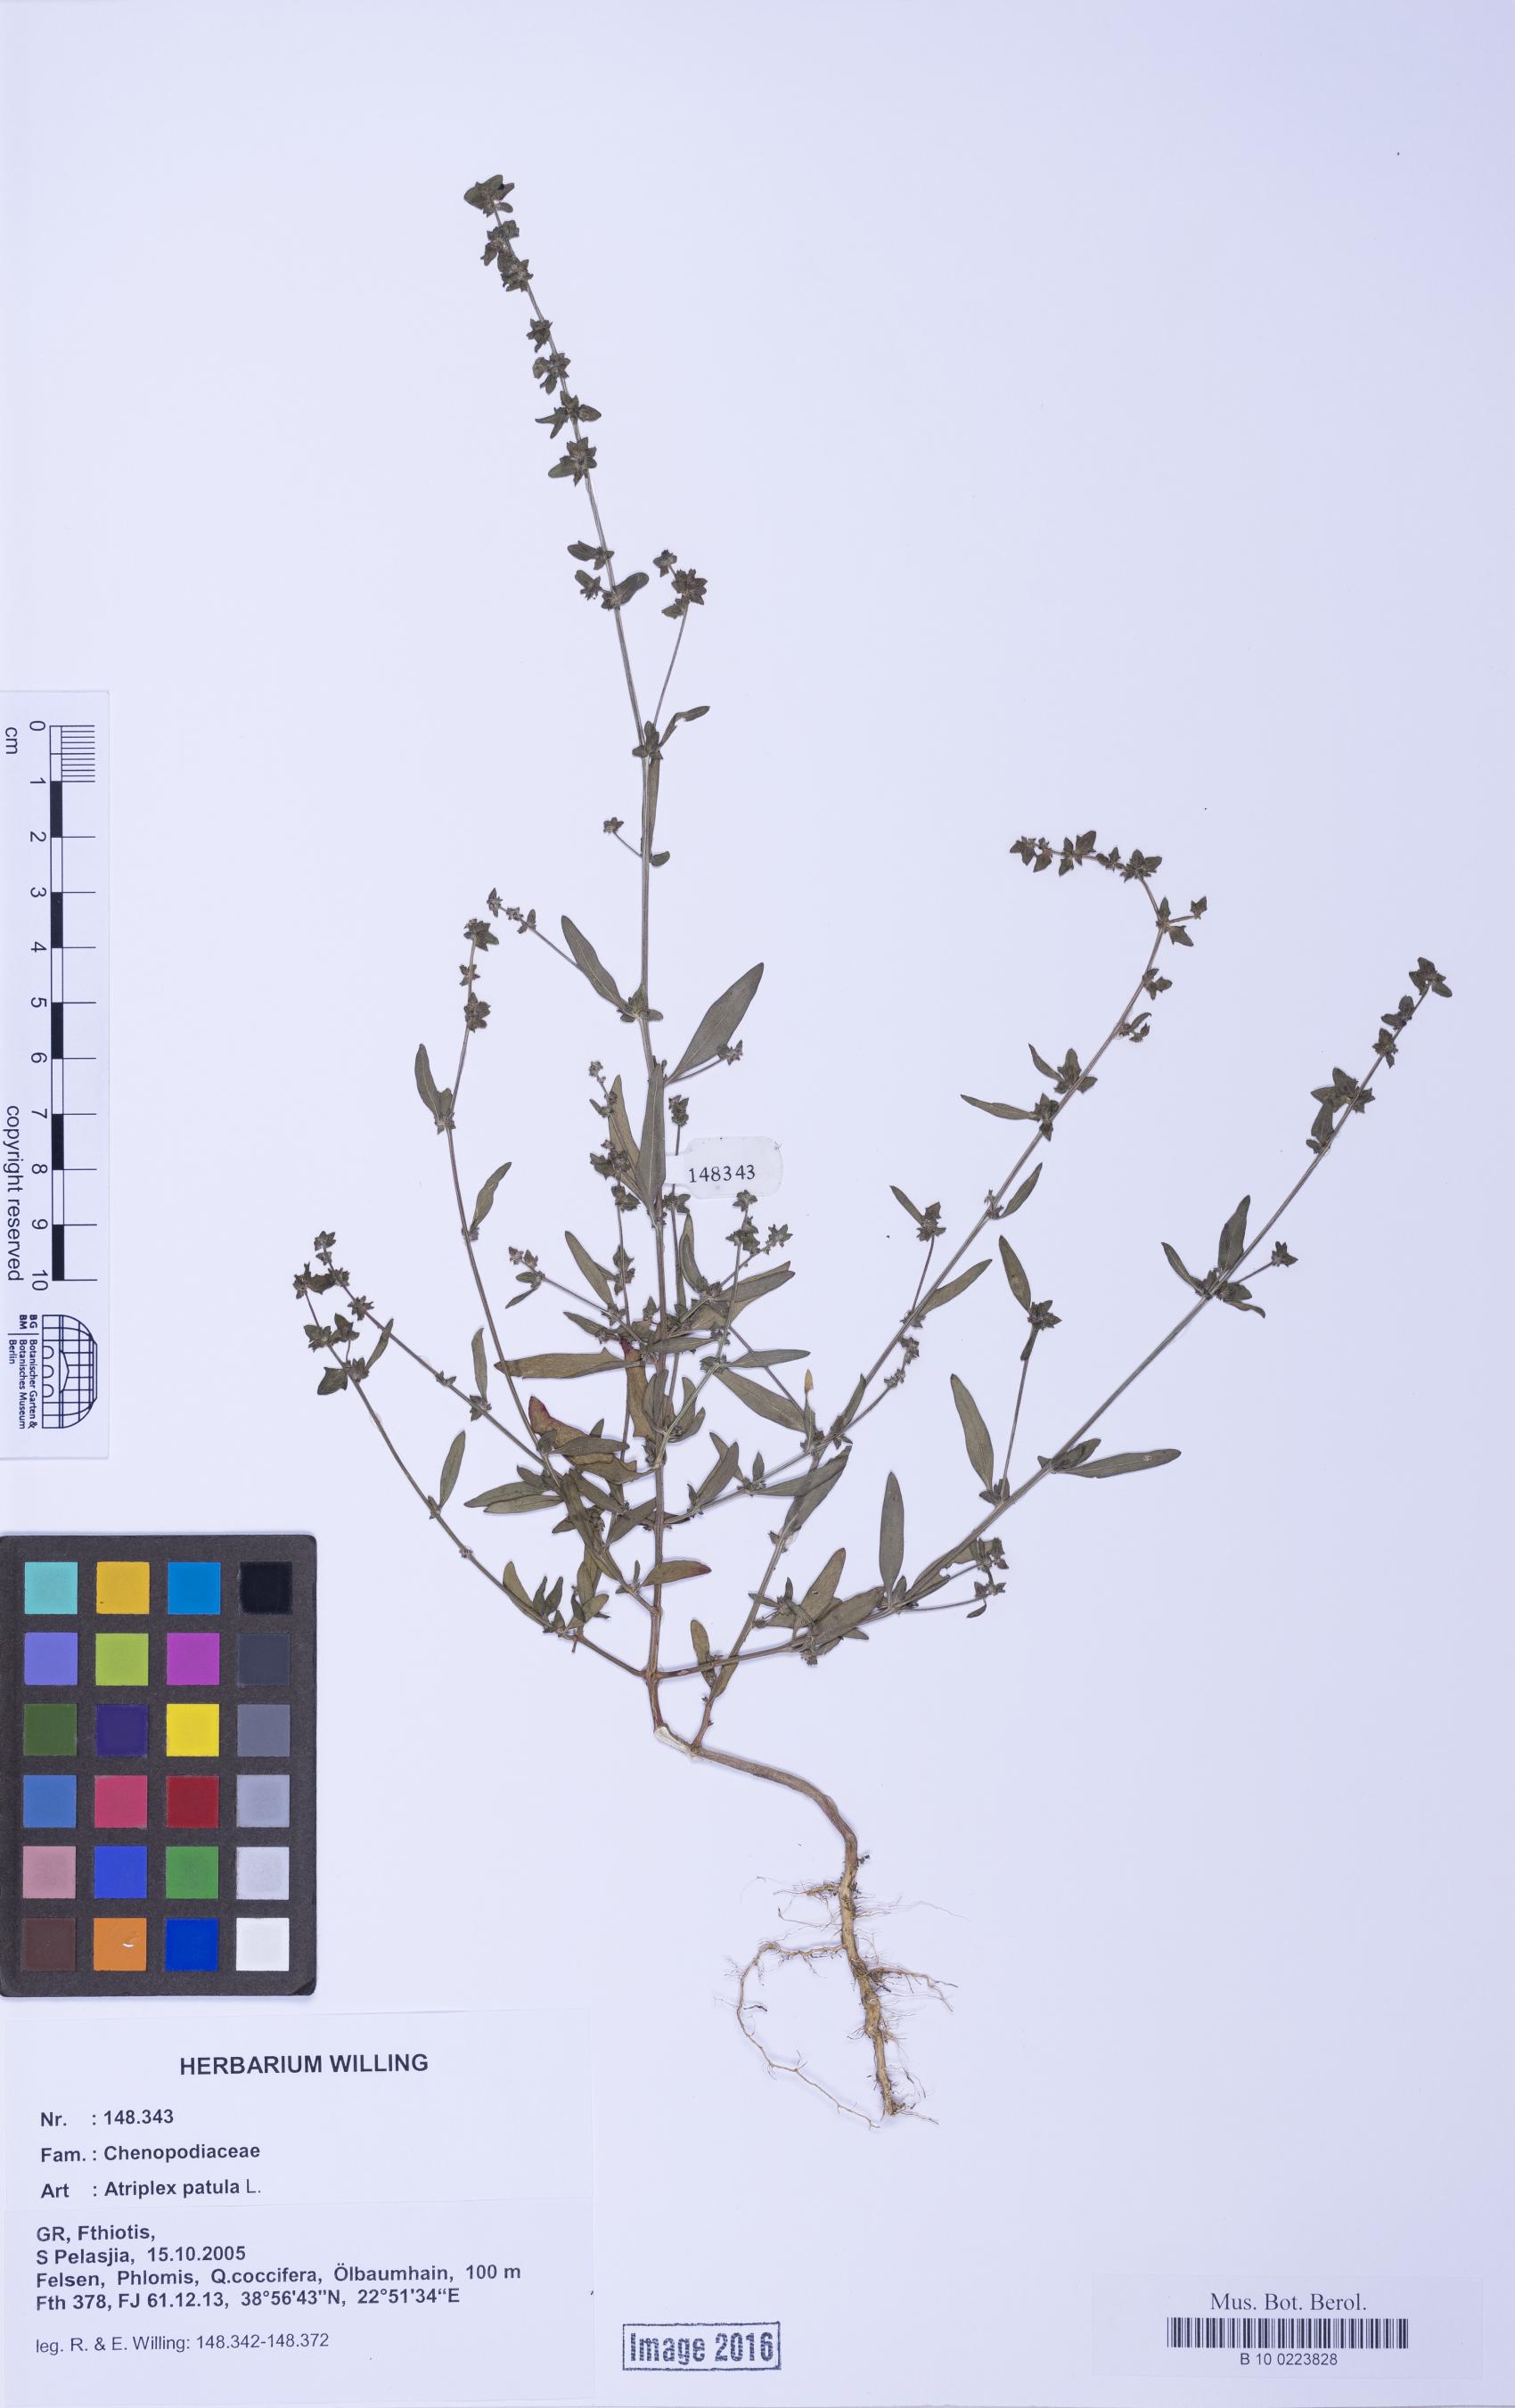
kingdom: Plantae
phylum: Tracheophyta
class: Magnoliopsida
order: Caryophyllales
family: Amaranthaceae
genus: Atriplex
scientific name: Atriplex patula
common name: Common orache
